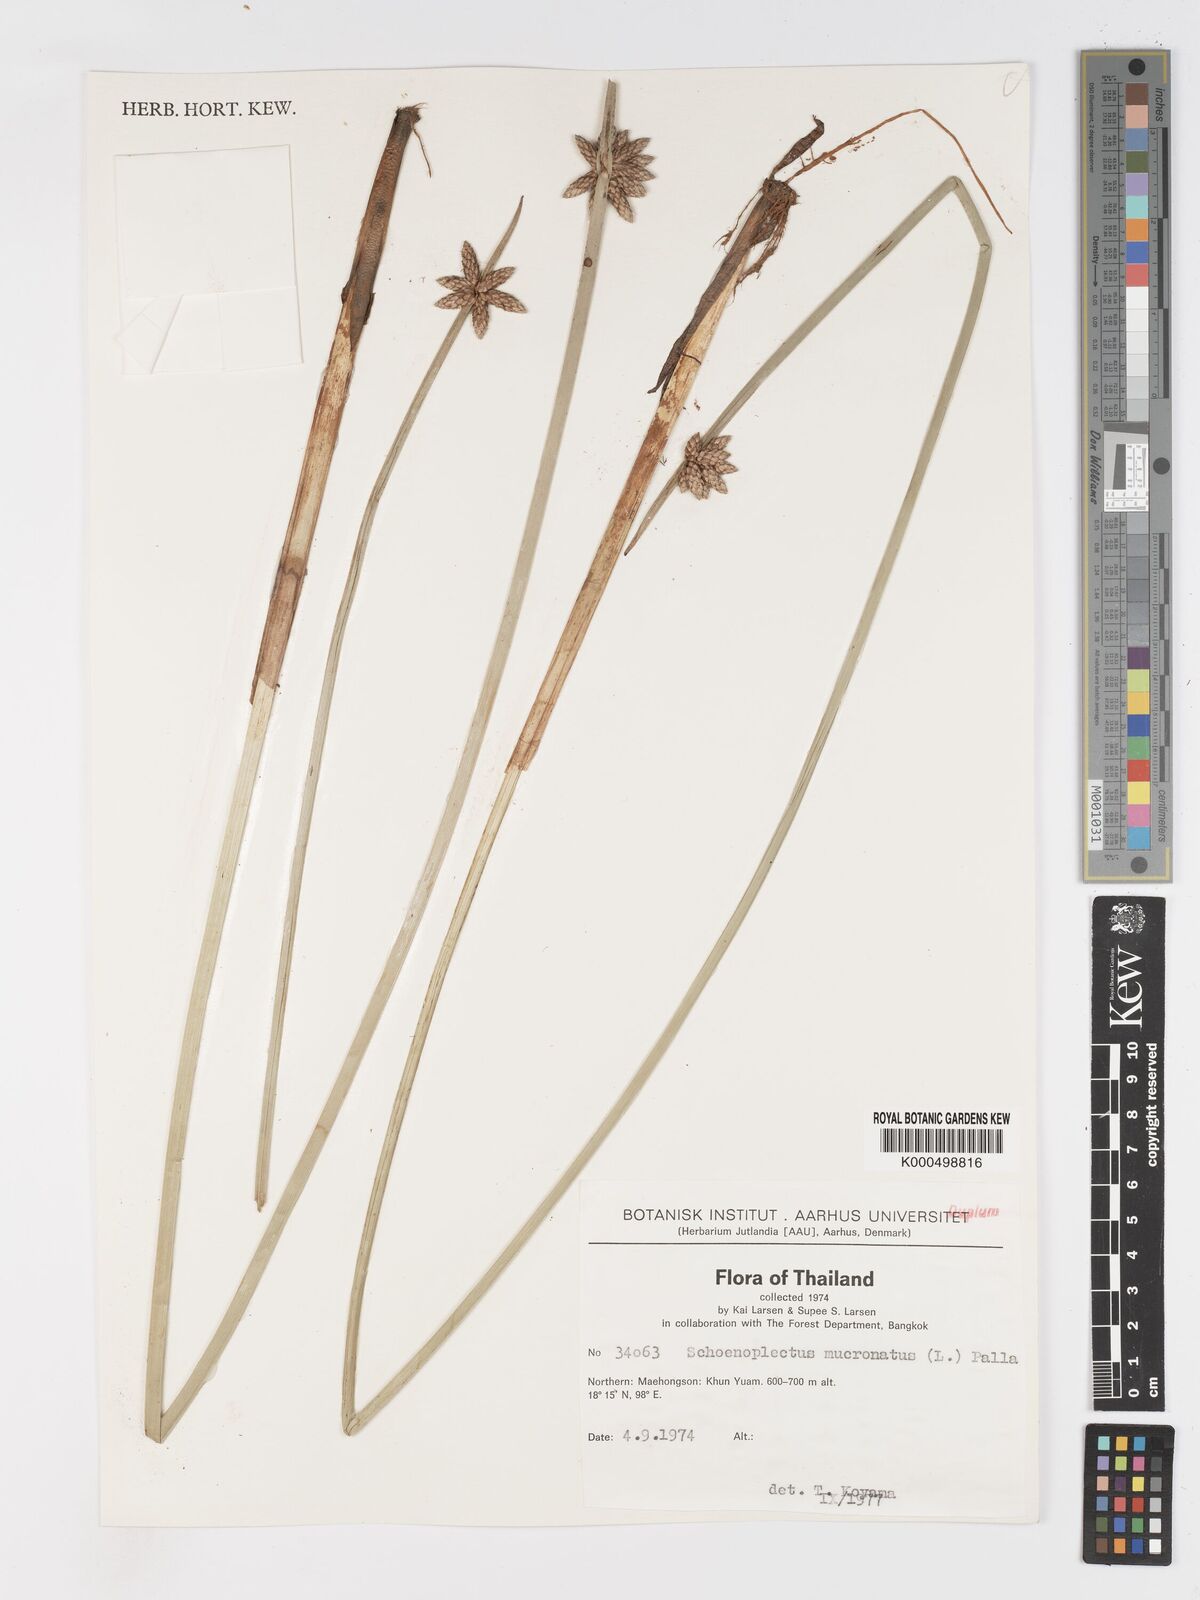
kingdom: Plantae
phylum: Tracheophyta
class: Liliopsida
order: Poales
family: Cyperaceae
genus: Schoenoplectiella
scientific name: Schoenoplectiella mucronata
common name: Bog bulrush
